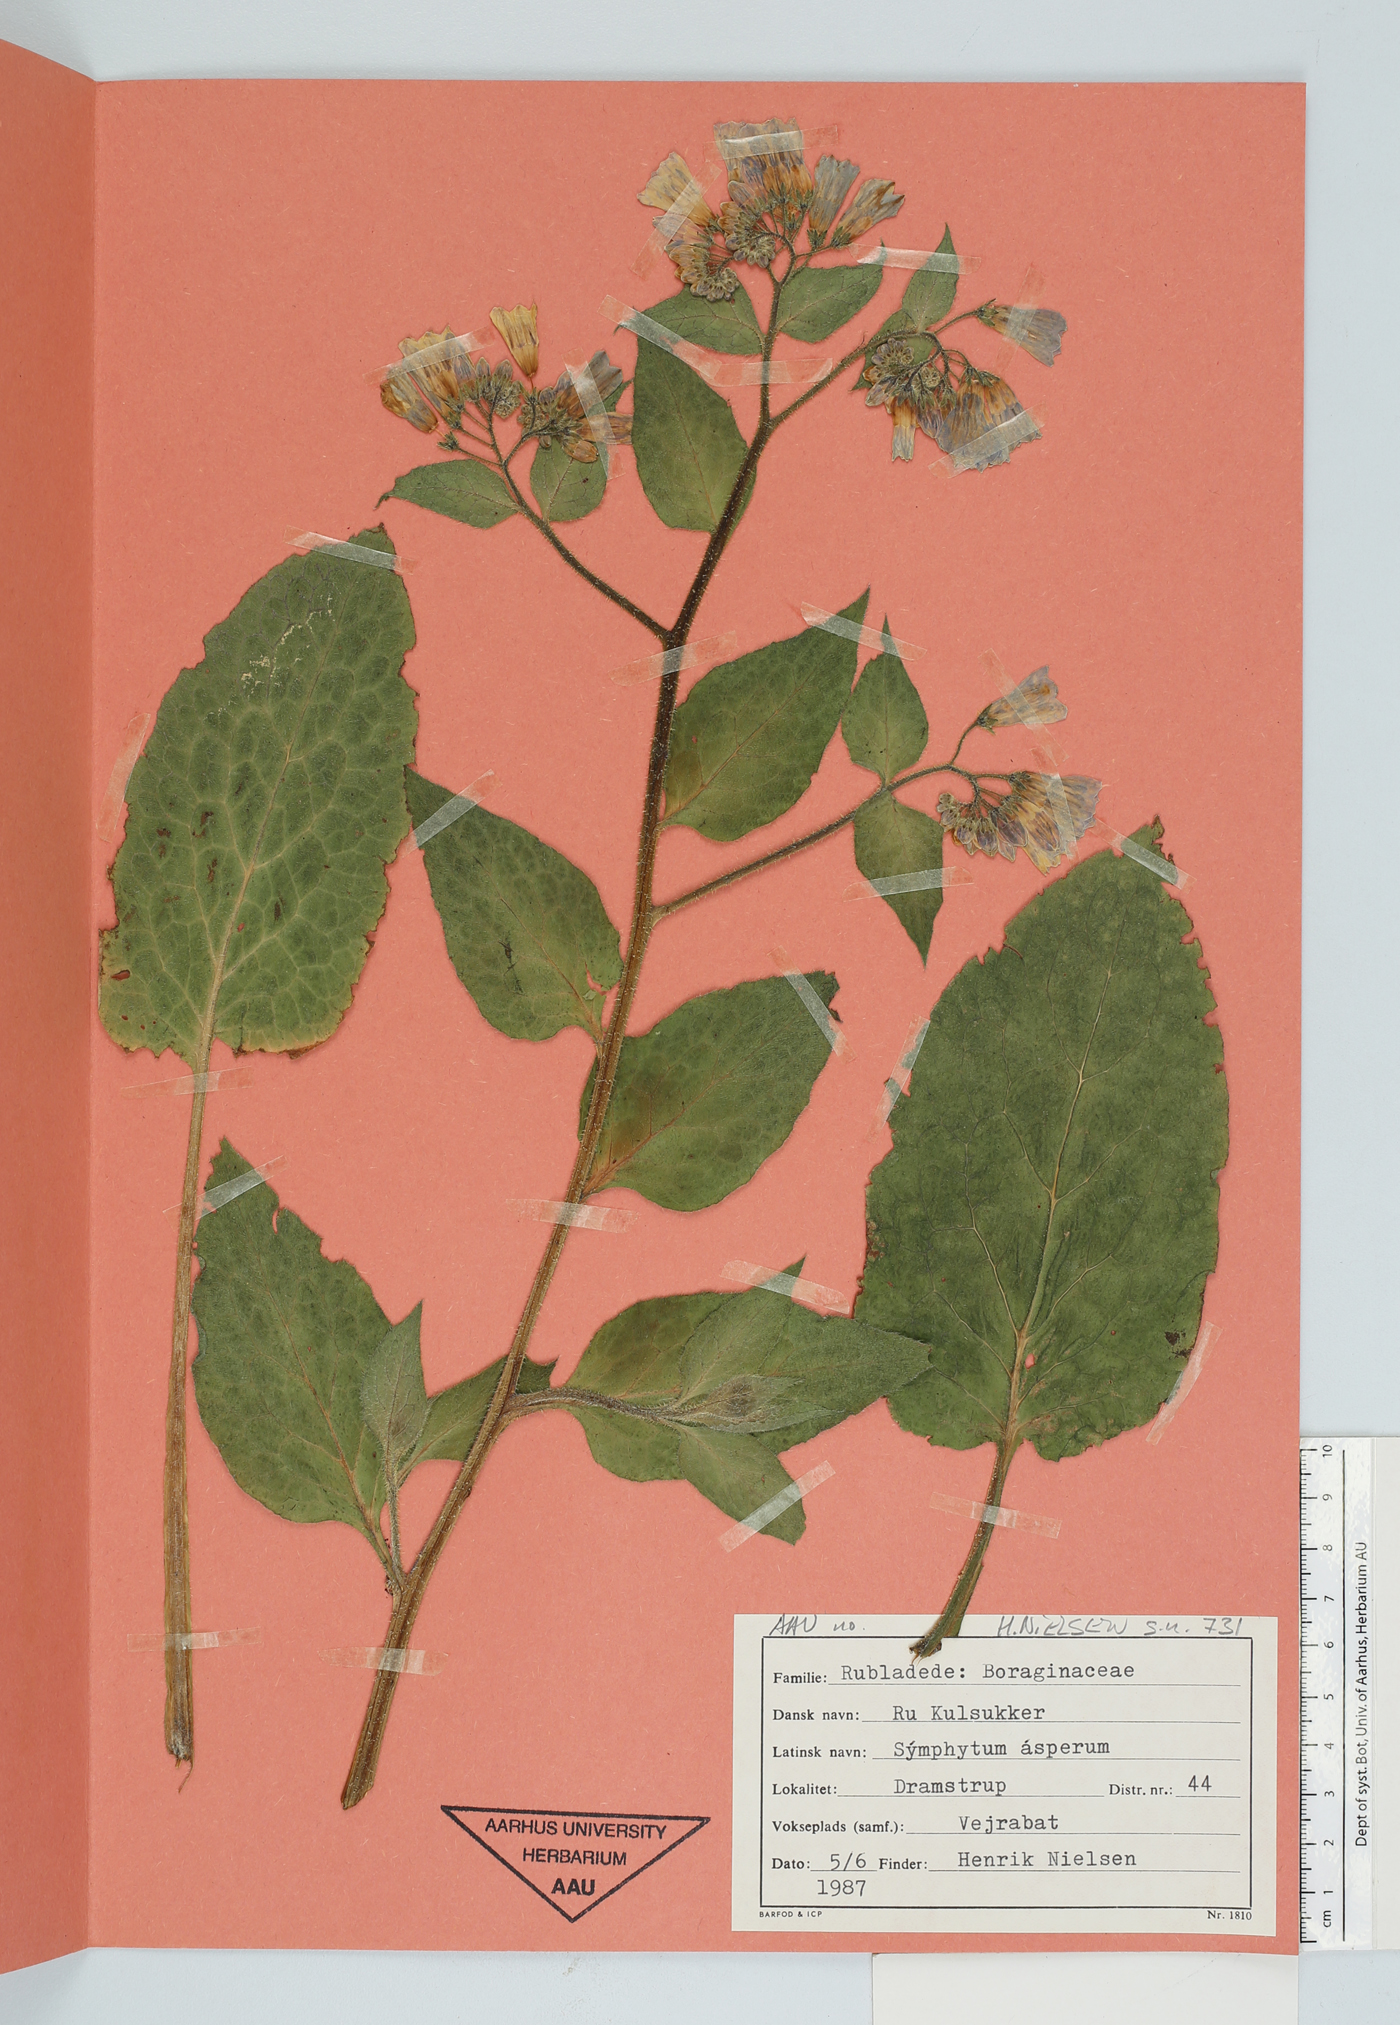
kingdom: Plantae
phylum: Tracheophyta
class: Magnoliopsida
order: Boraginales
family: Boraginaceae
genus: Symphytum
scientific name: Symphytum asperum
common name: Prickly comfrey
